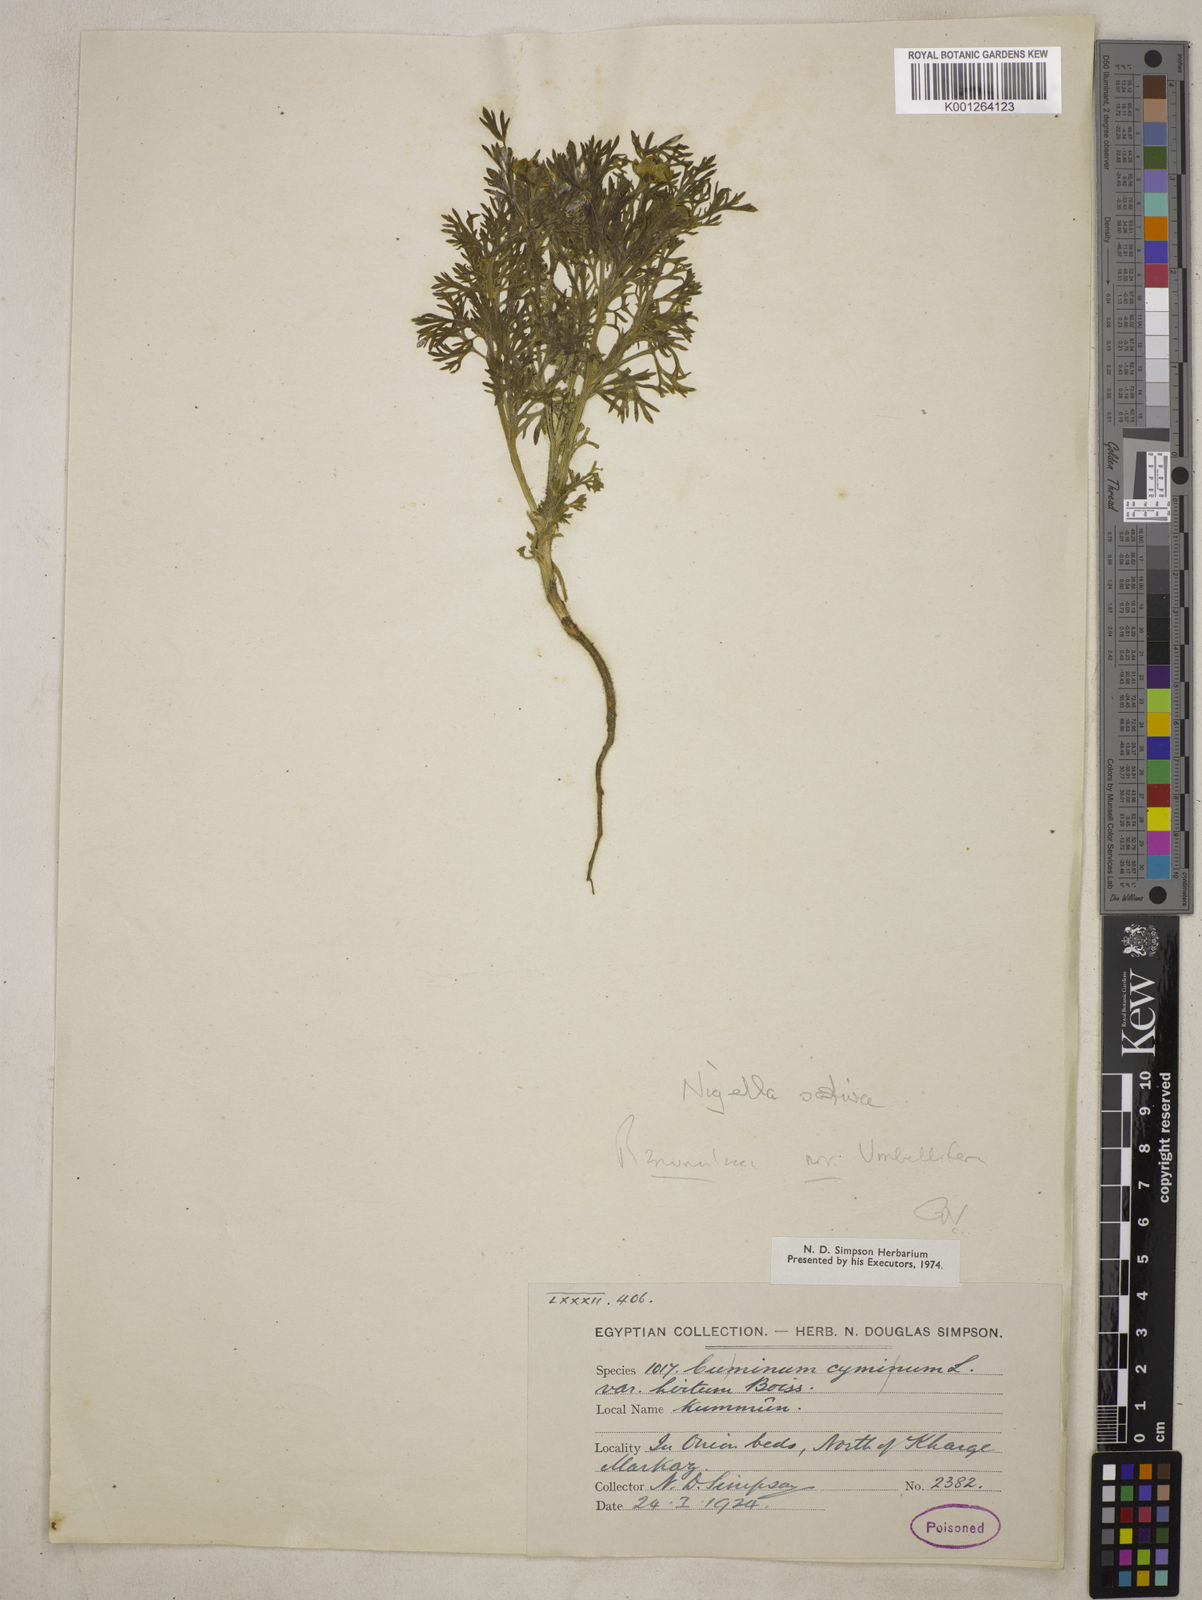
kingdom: Plantae
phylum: Tracheophyta
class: Magnoliopsida
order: Ranunculales
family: Ranunculaceae
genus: Nigella
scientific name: Nigella sativa
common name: Black-cumin
